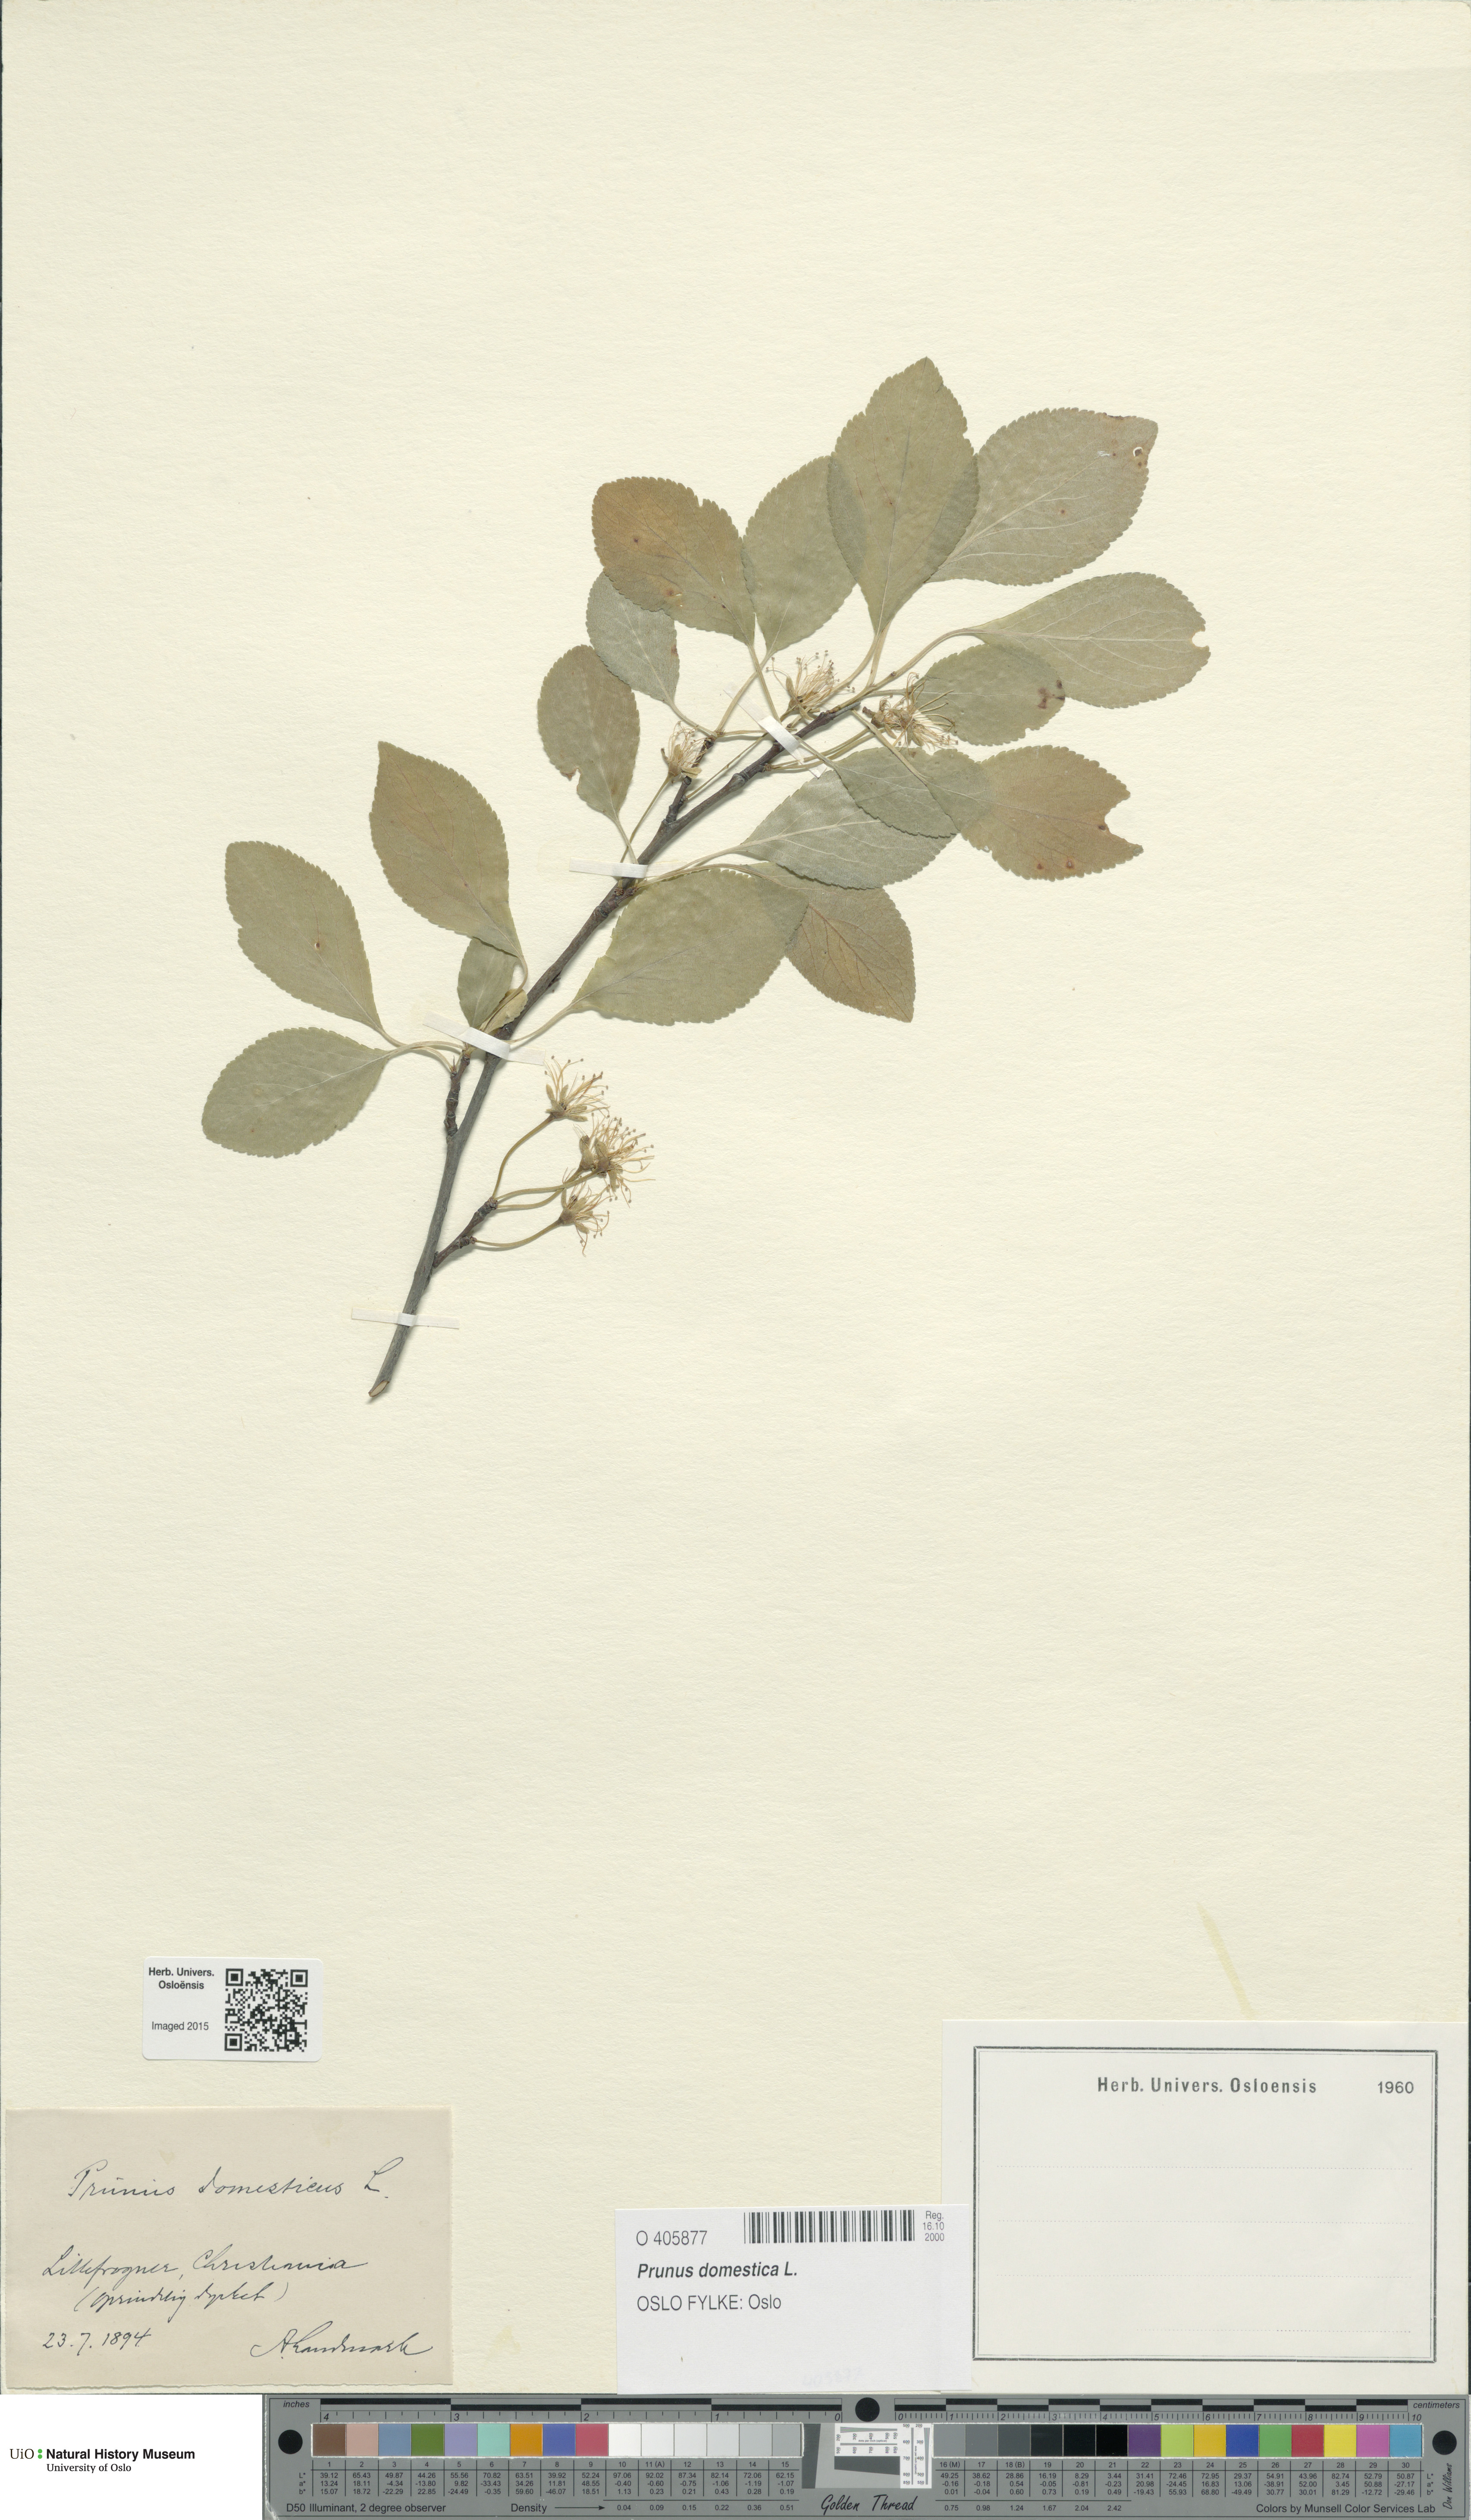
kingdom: Plantae
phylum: Tracheophyta
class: Magnoliopsida
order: Rosales
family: Rosaceae
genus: Prunus
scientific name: Prunus domestica
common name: Wild plum
